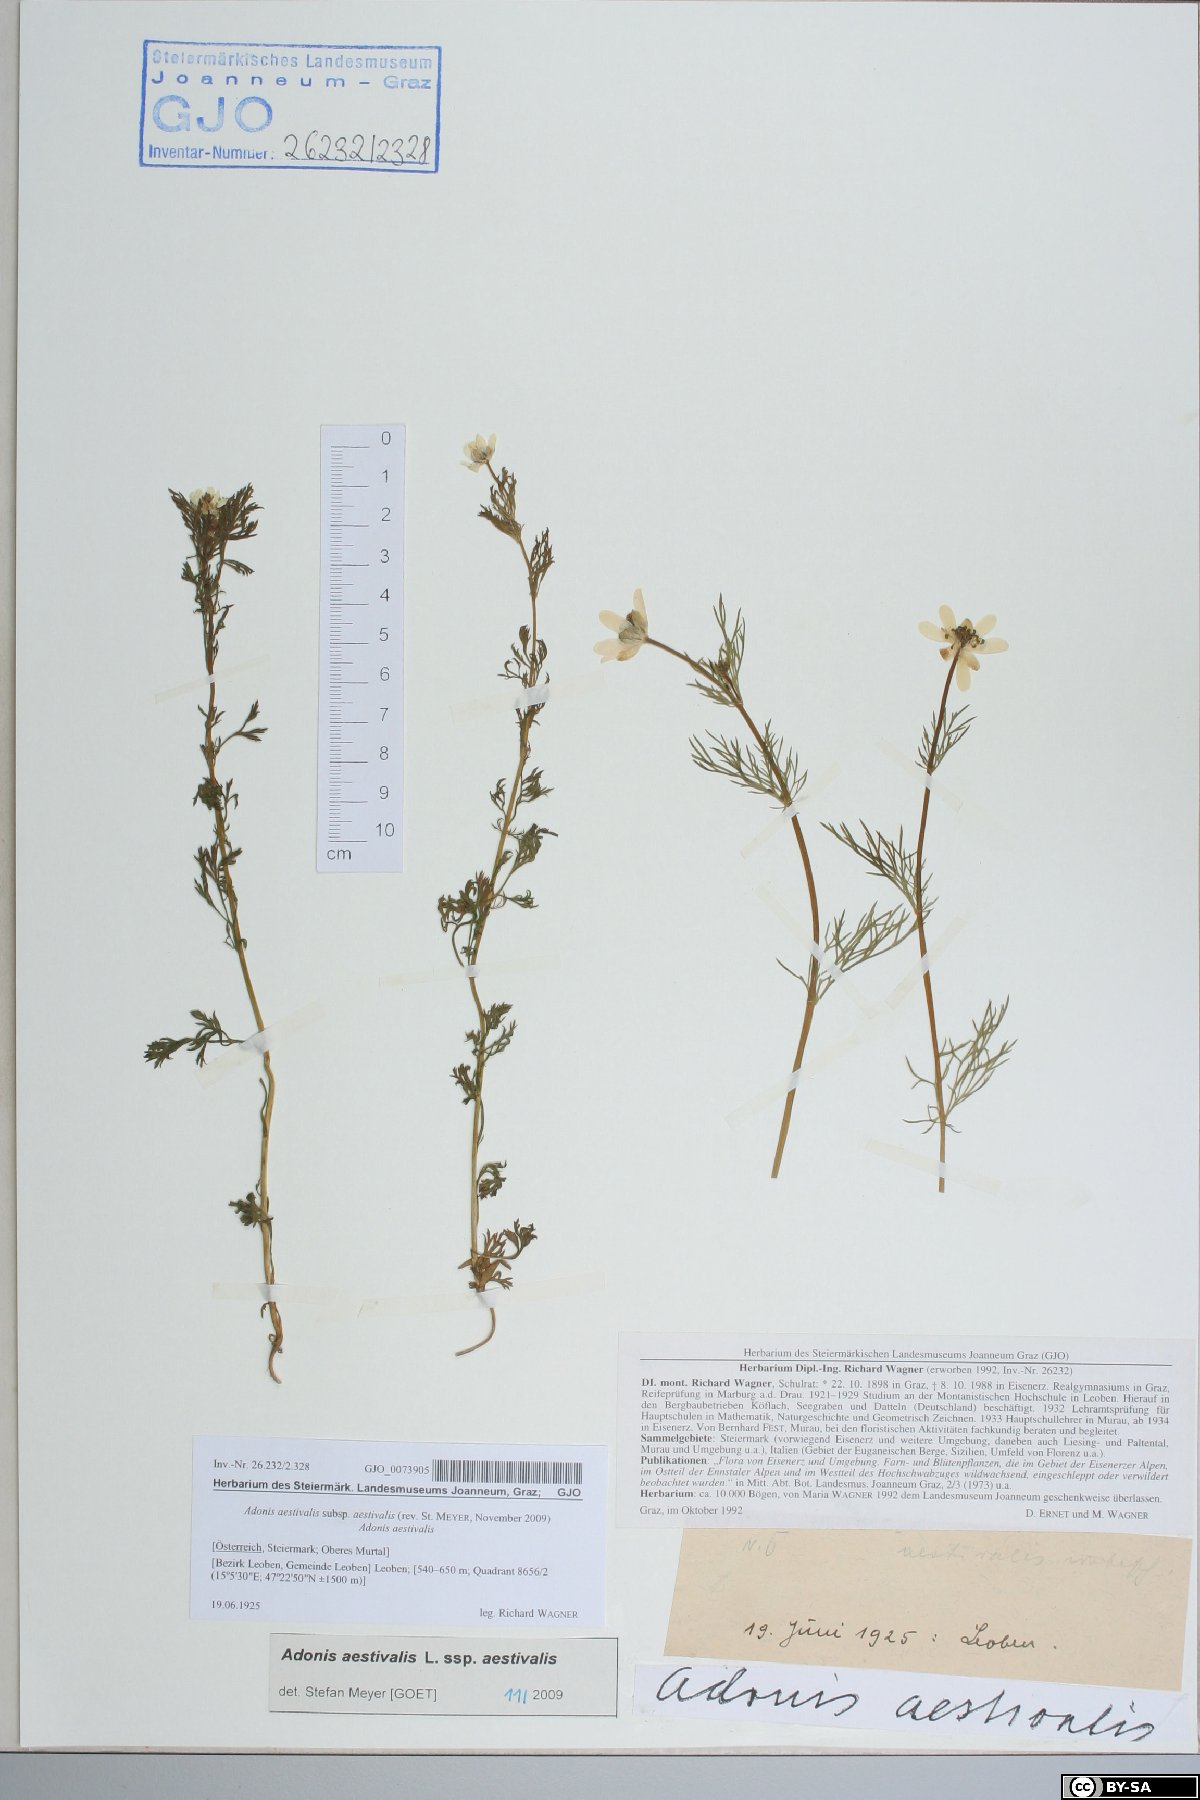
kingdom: Plantae
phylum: Tracheophyta
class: Magnoliopsida
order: Ranunculales
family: Ranunculaceae
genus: Adonis
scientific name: Adonis aestivalis
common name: Summer pheasant's-eye
